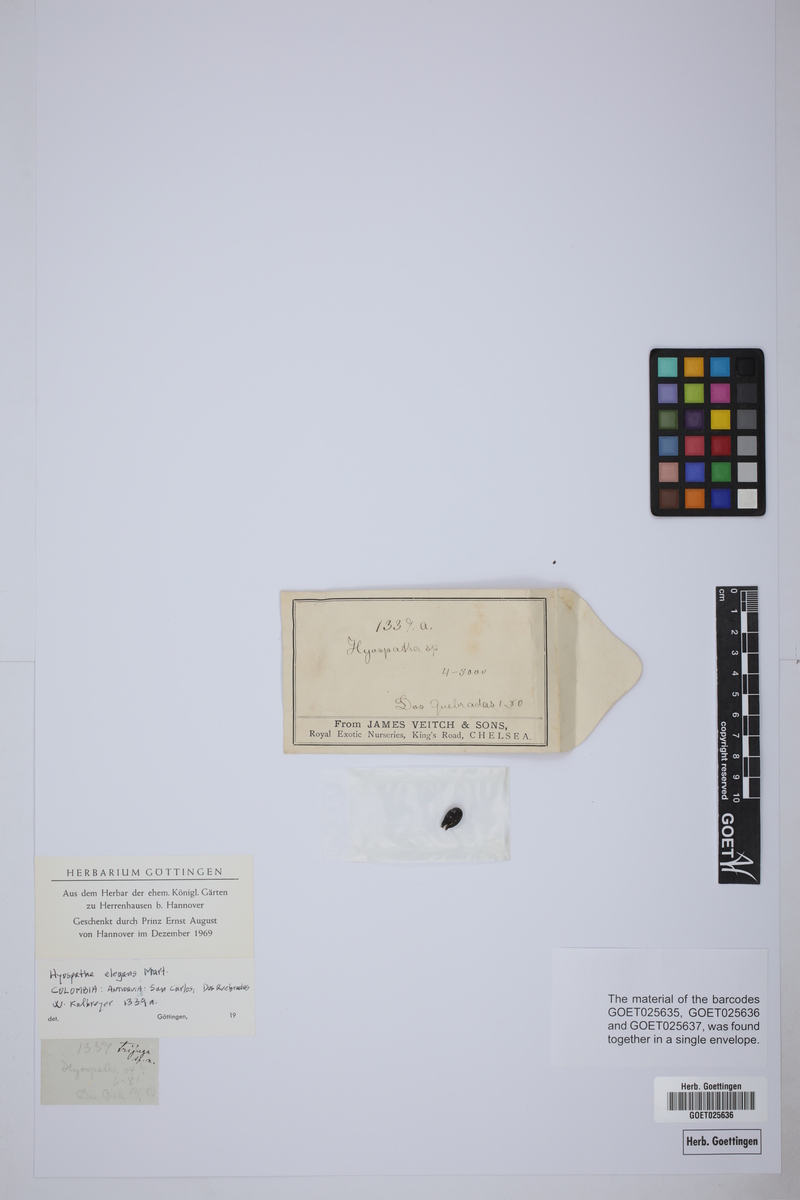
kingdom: Plantae
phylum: Tracheophyta
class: Liliopsida
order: Arecales
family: Arecaceae
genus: Hyospathe
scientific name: Hyospathe elegans
